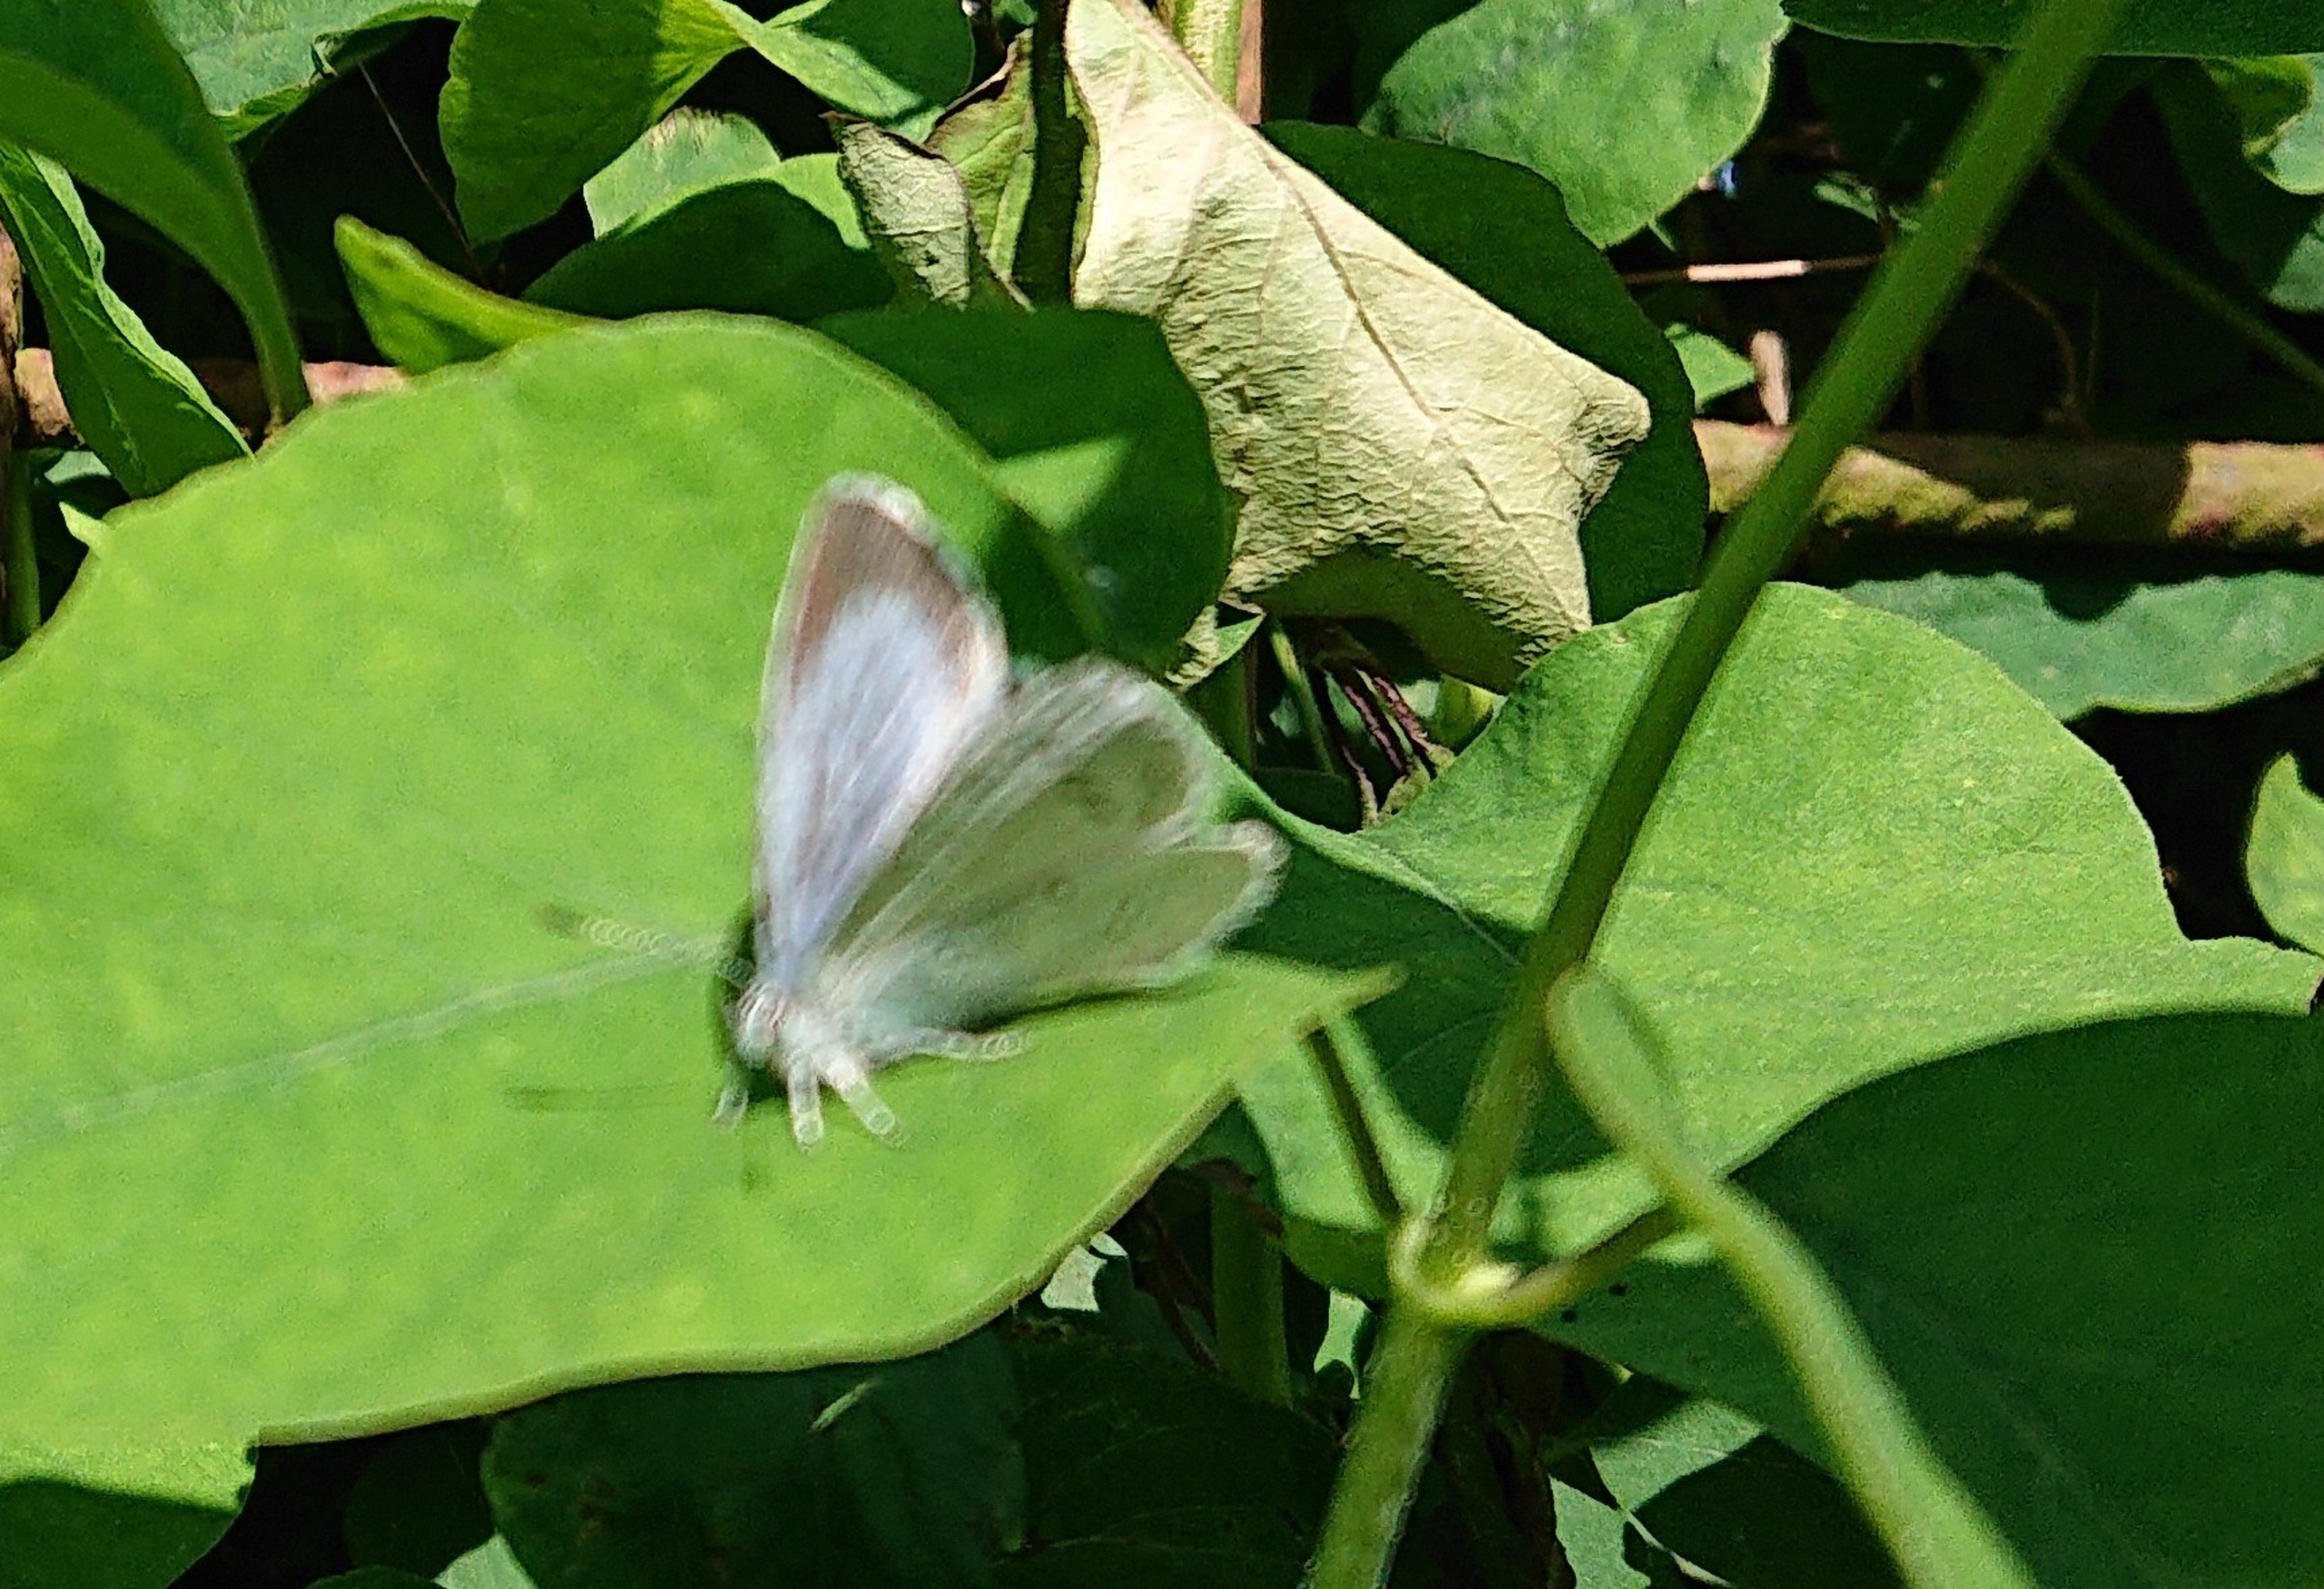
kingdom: Animalia
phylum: Arthropoda
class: Insecta
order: Lepidoptera
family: Lycaenidae
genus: Celastrina
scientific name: Celastrina argiolus
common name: Skovblåfugl
